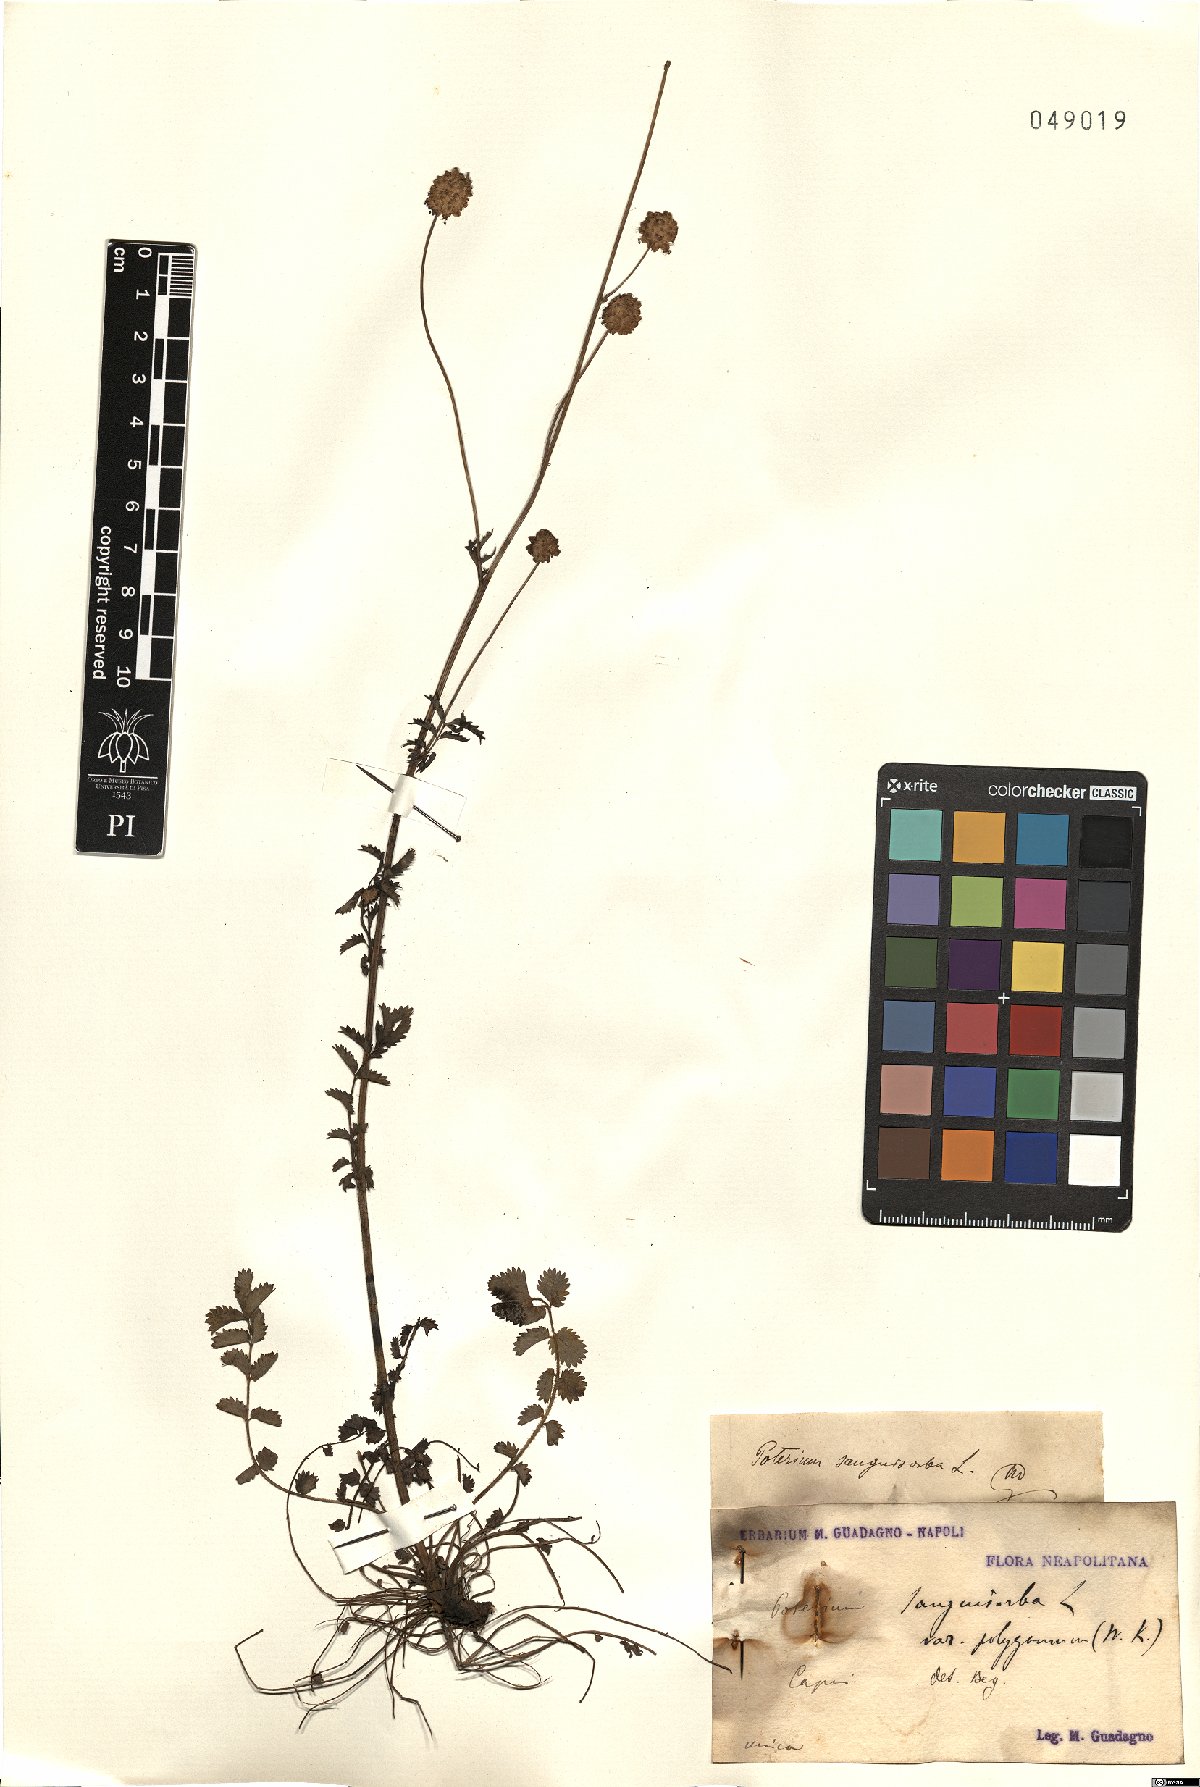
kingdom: Plantae
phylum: Tracheophyta
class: Magnoliopsida
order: Rosales
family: Rosaceae
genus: Poterium
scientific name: Poterium sanguisorba
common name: Salad burnet
